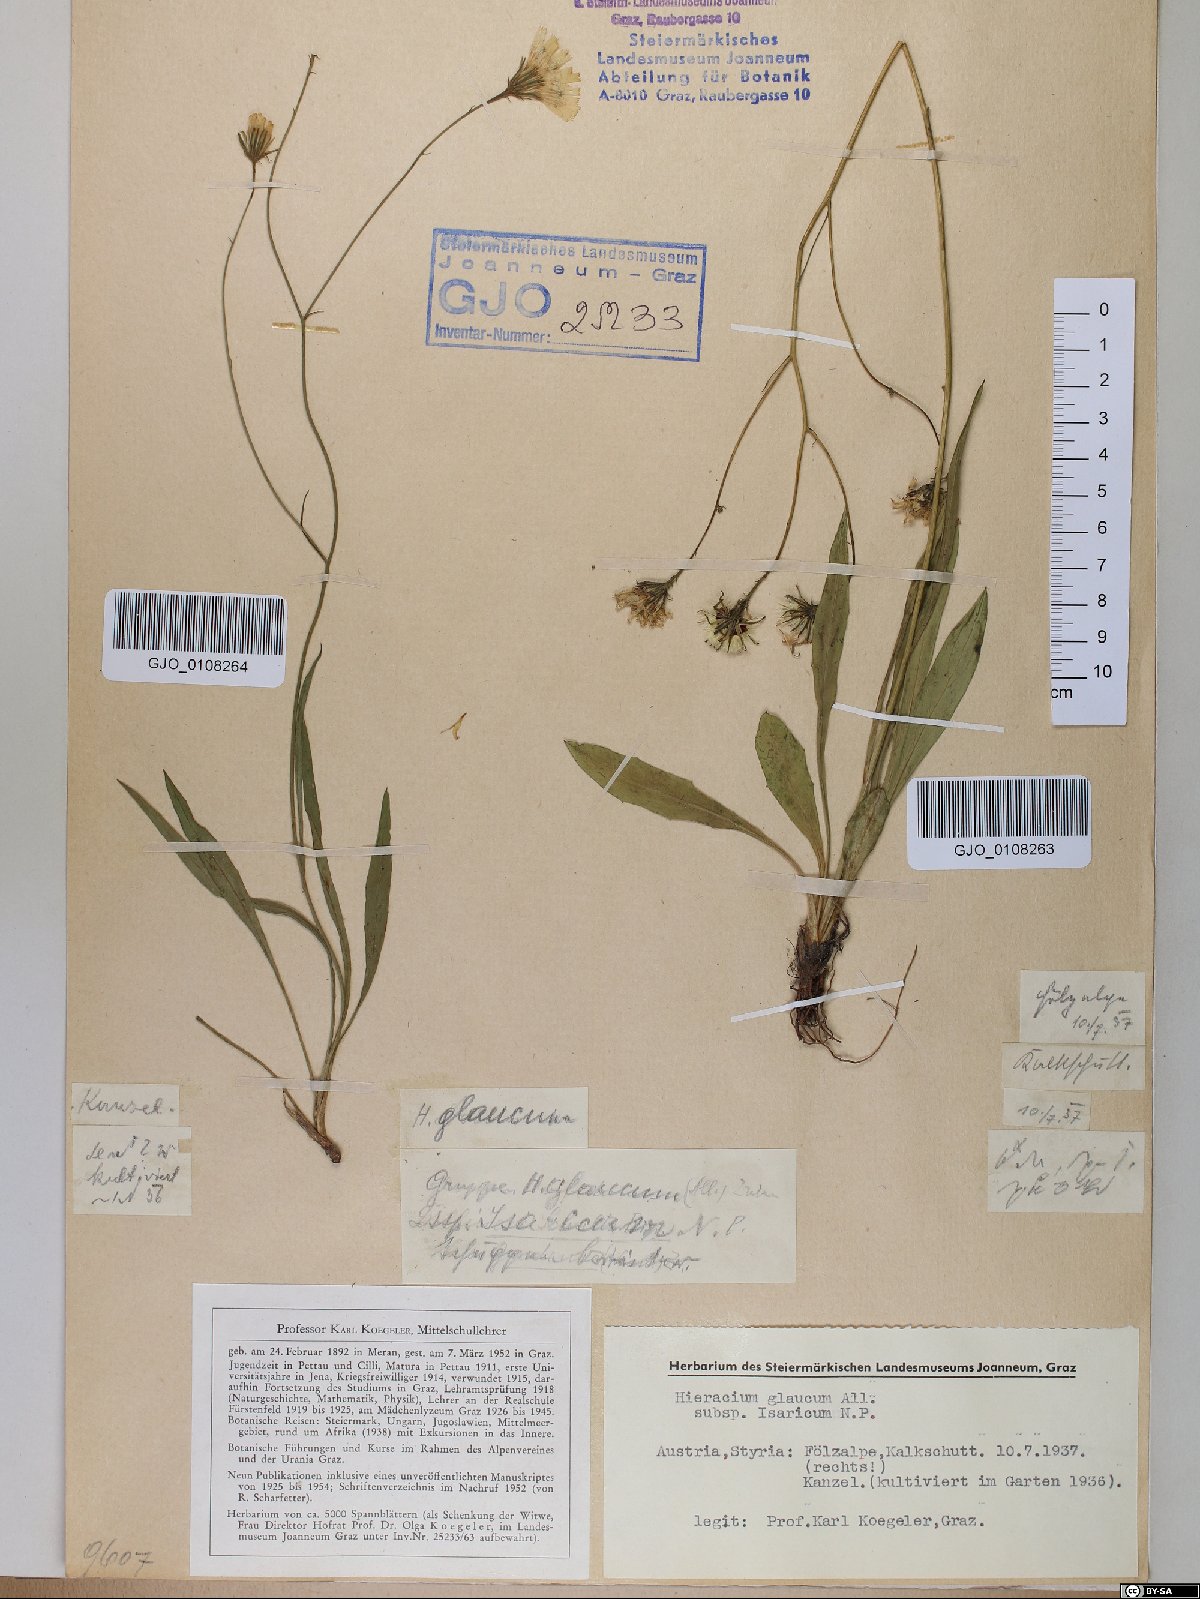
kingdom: Plantae
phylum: Tracheophyta
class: Magnoliopsida
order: Asterales
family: Asteraceae
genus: Hieracium
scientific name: Hieracium glaucum
